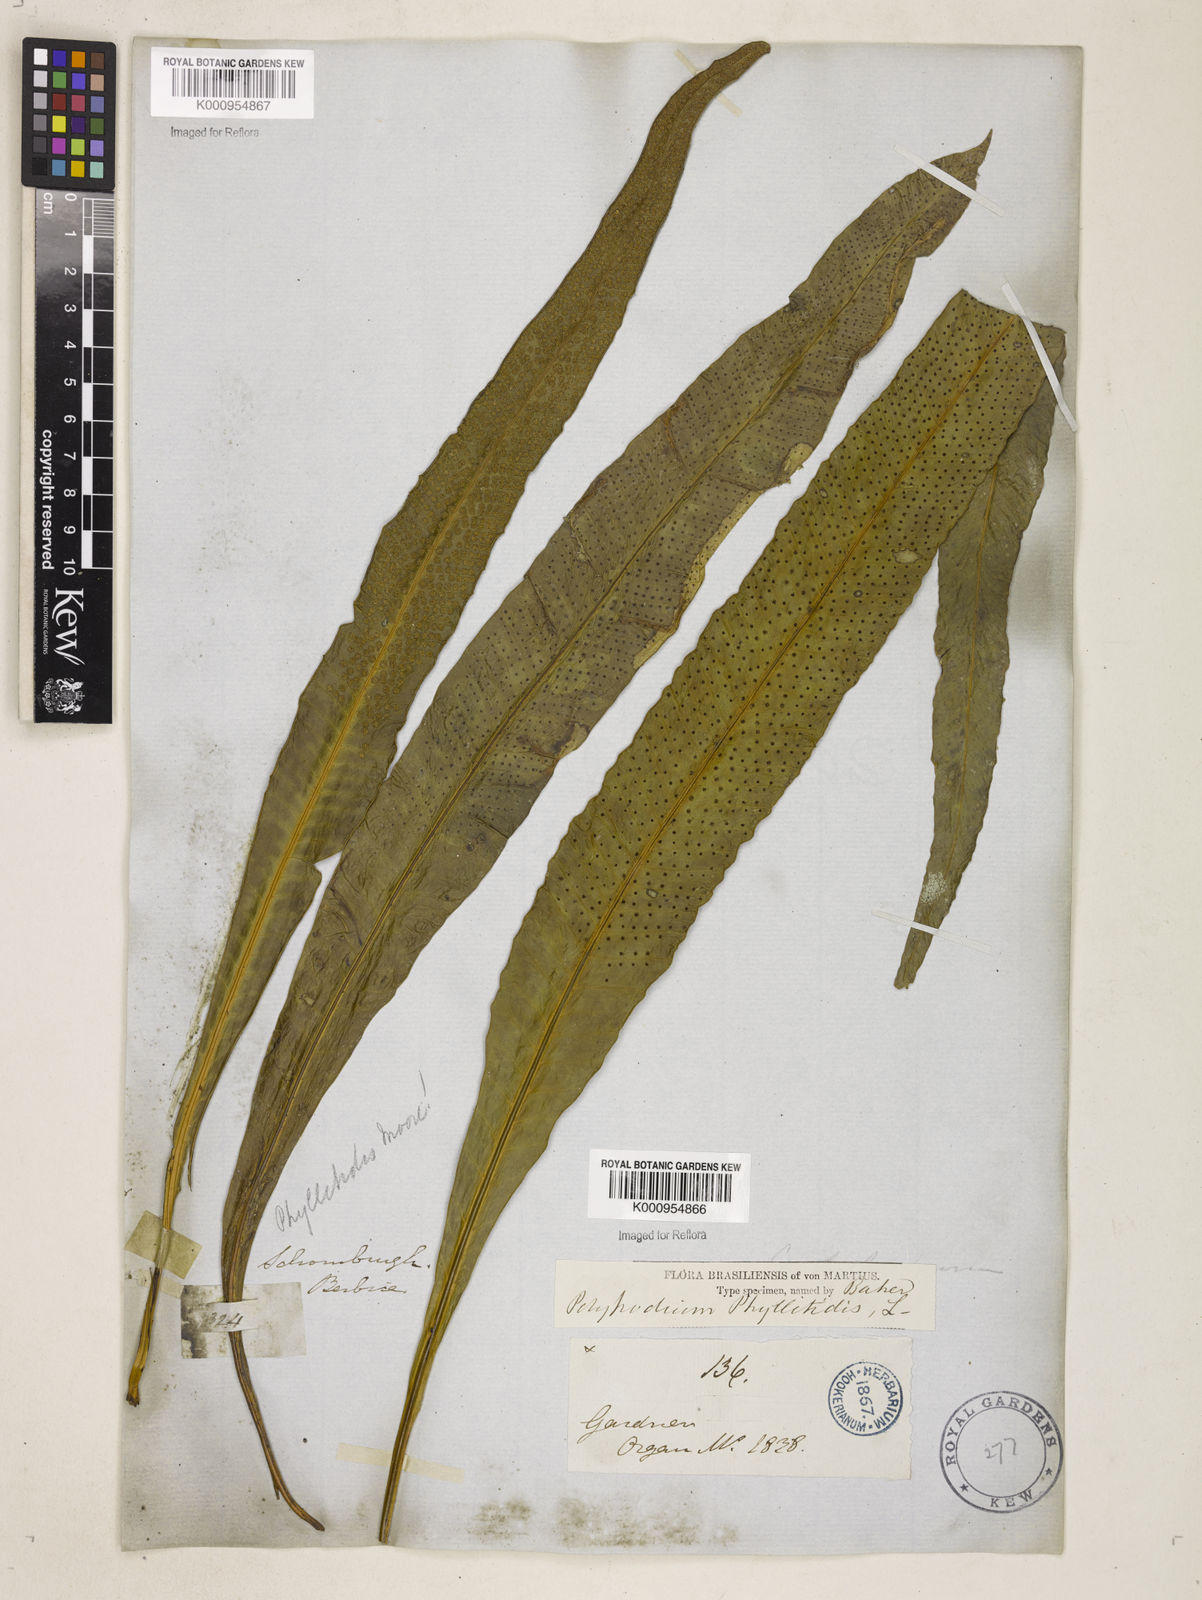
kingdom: Plantae
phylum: Tracheophyta
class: Polypodiopsida
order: Polypodiales
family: Polypodiaceae
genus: Campyloneurum
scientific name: Campyloneurum phyllitidis
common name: Cow-tongue fern
